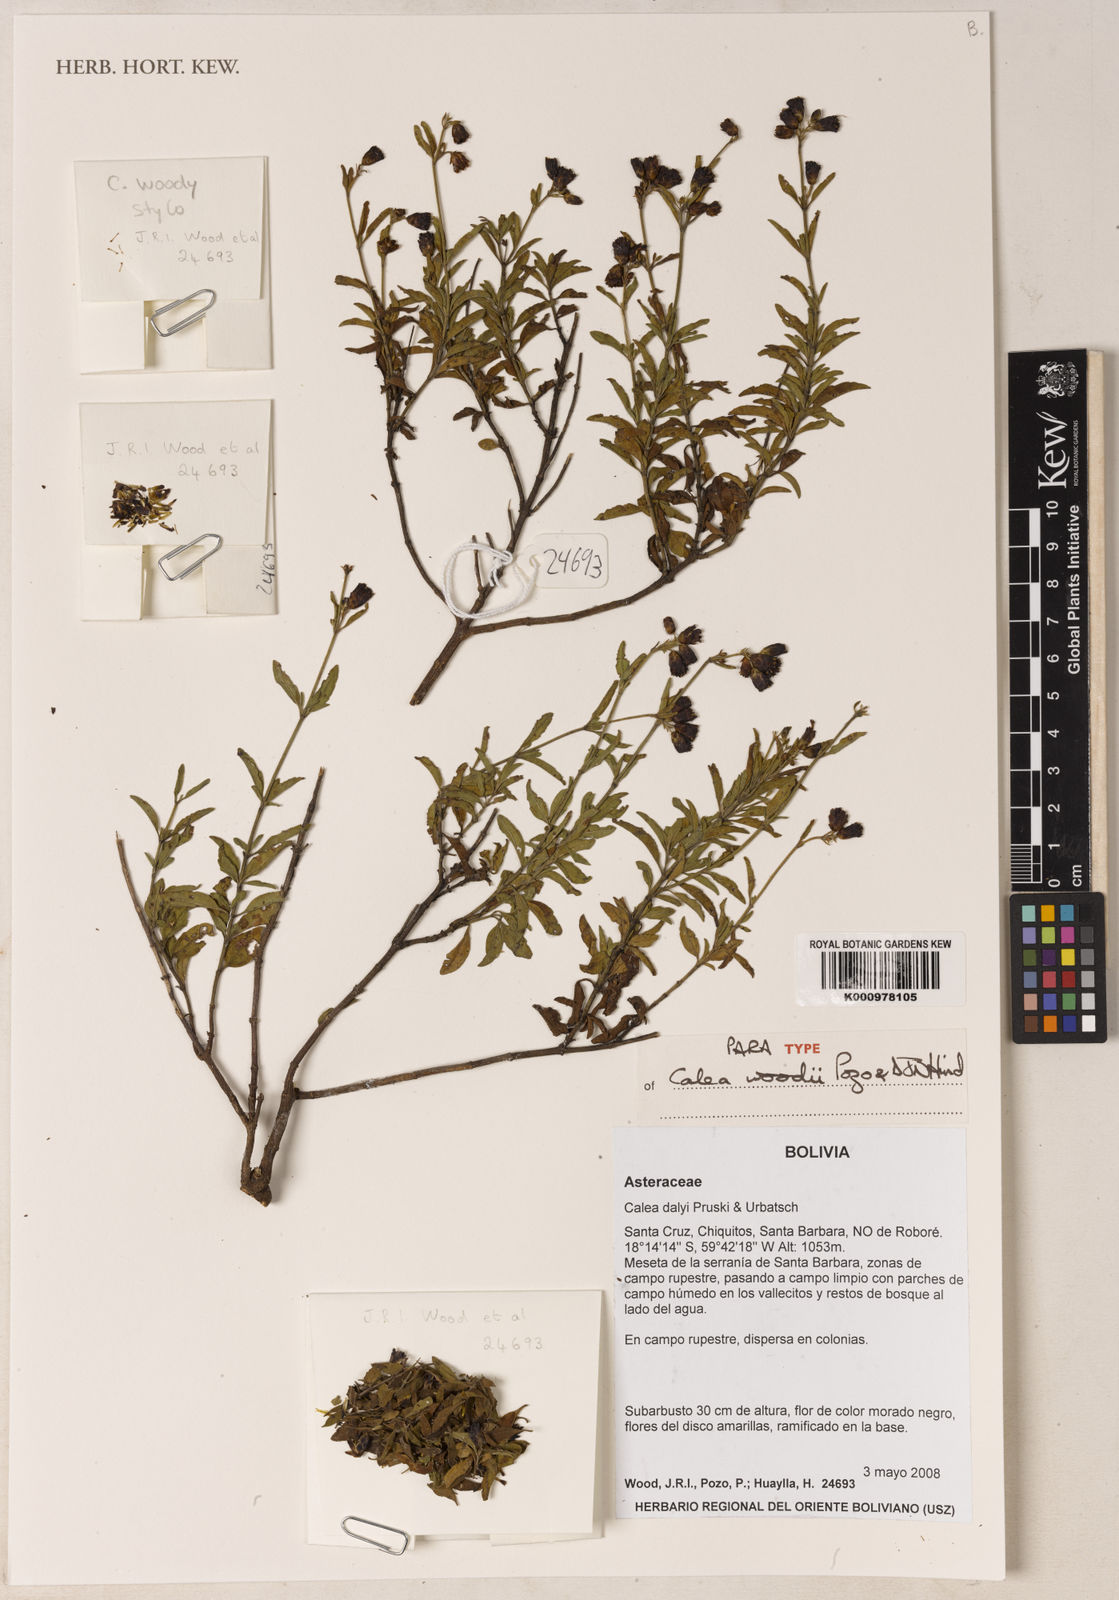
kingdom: Plantae
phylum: Tracheophyta
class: Magnoliopsida
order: Asterales
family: Asteraceae
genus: Calea
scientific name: Calea dalyi
